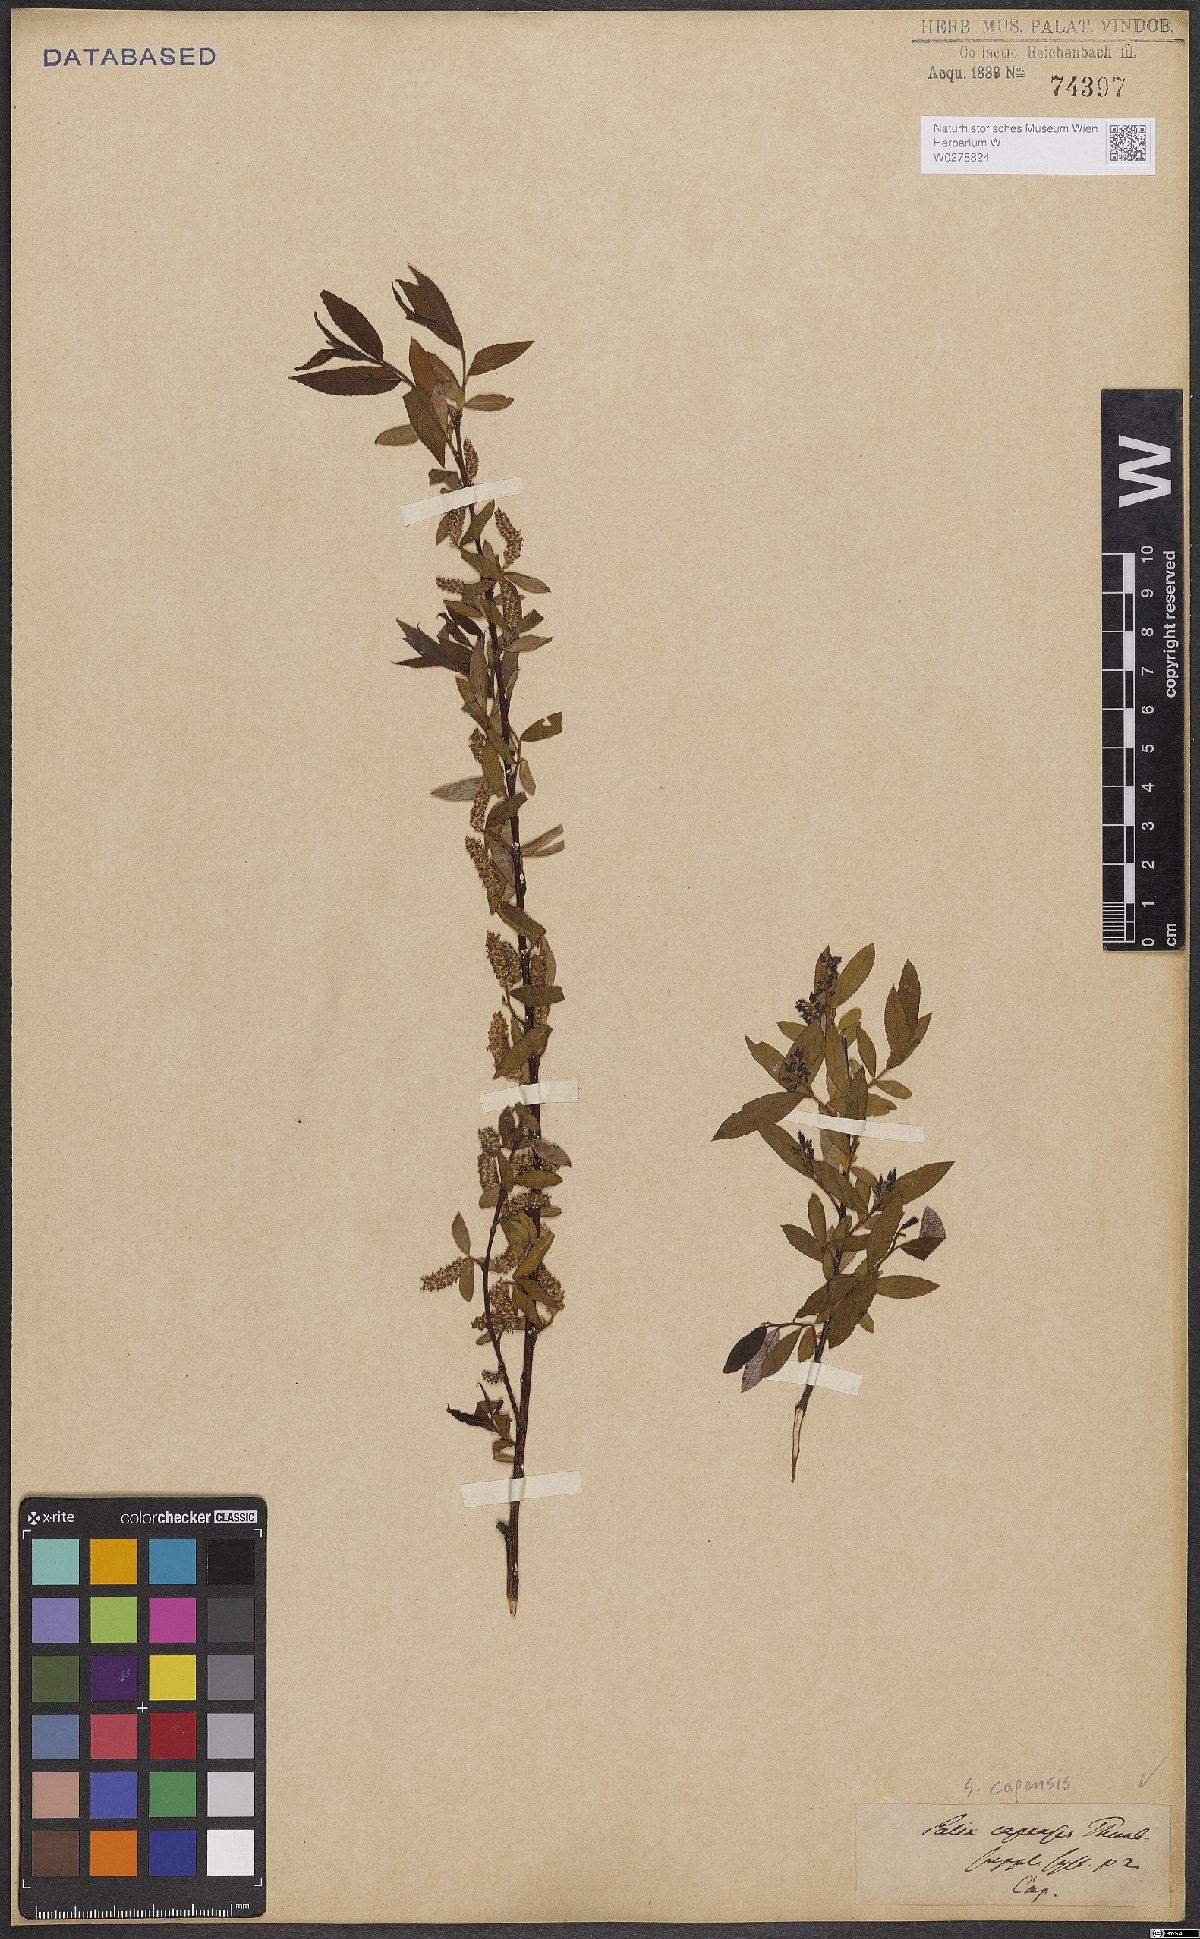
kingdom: Plantae
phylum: Tracheophyta
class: Magnoliopsida
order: Malpighiales
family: Salicaceae
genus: Salix
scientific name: Salix mucronata
